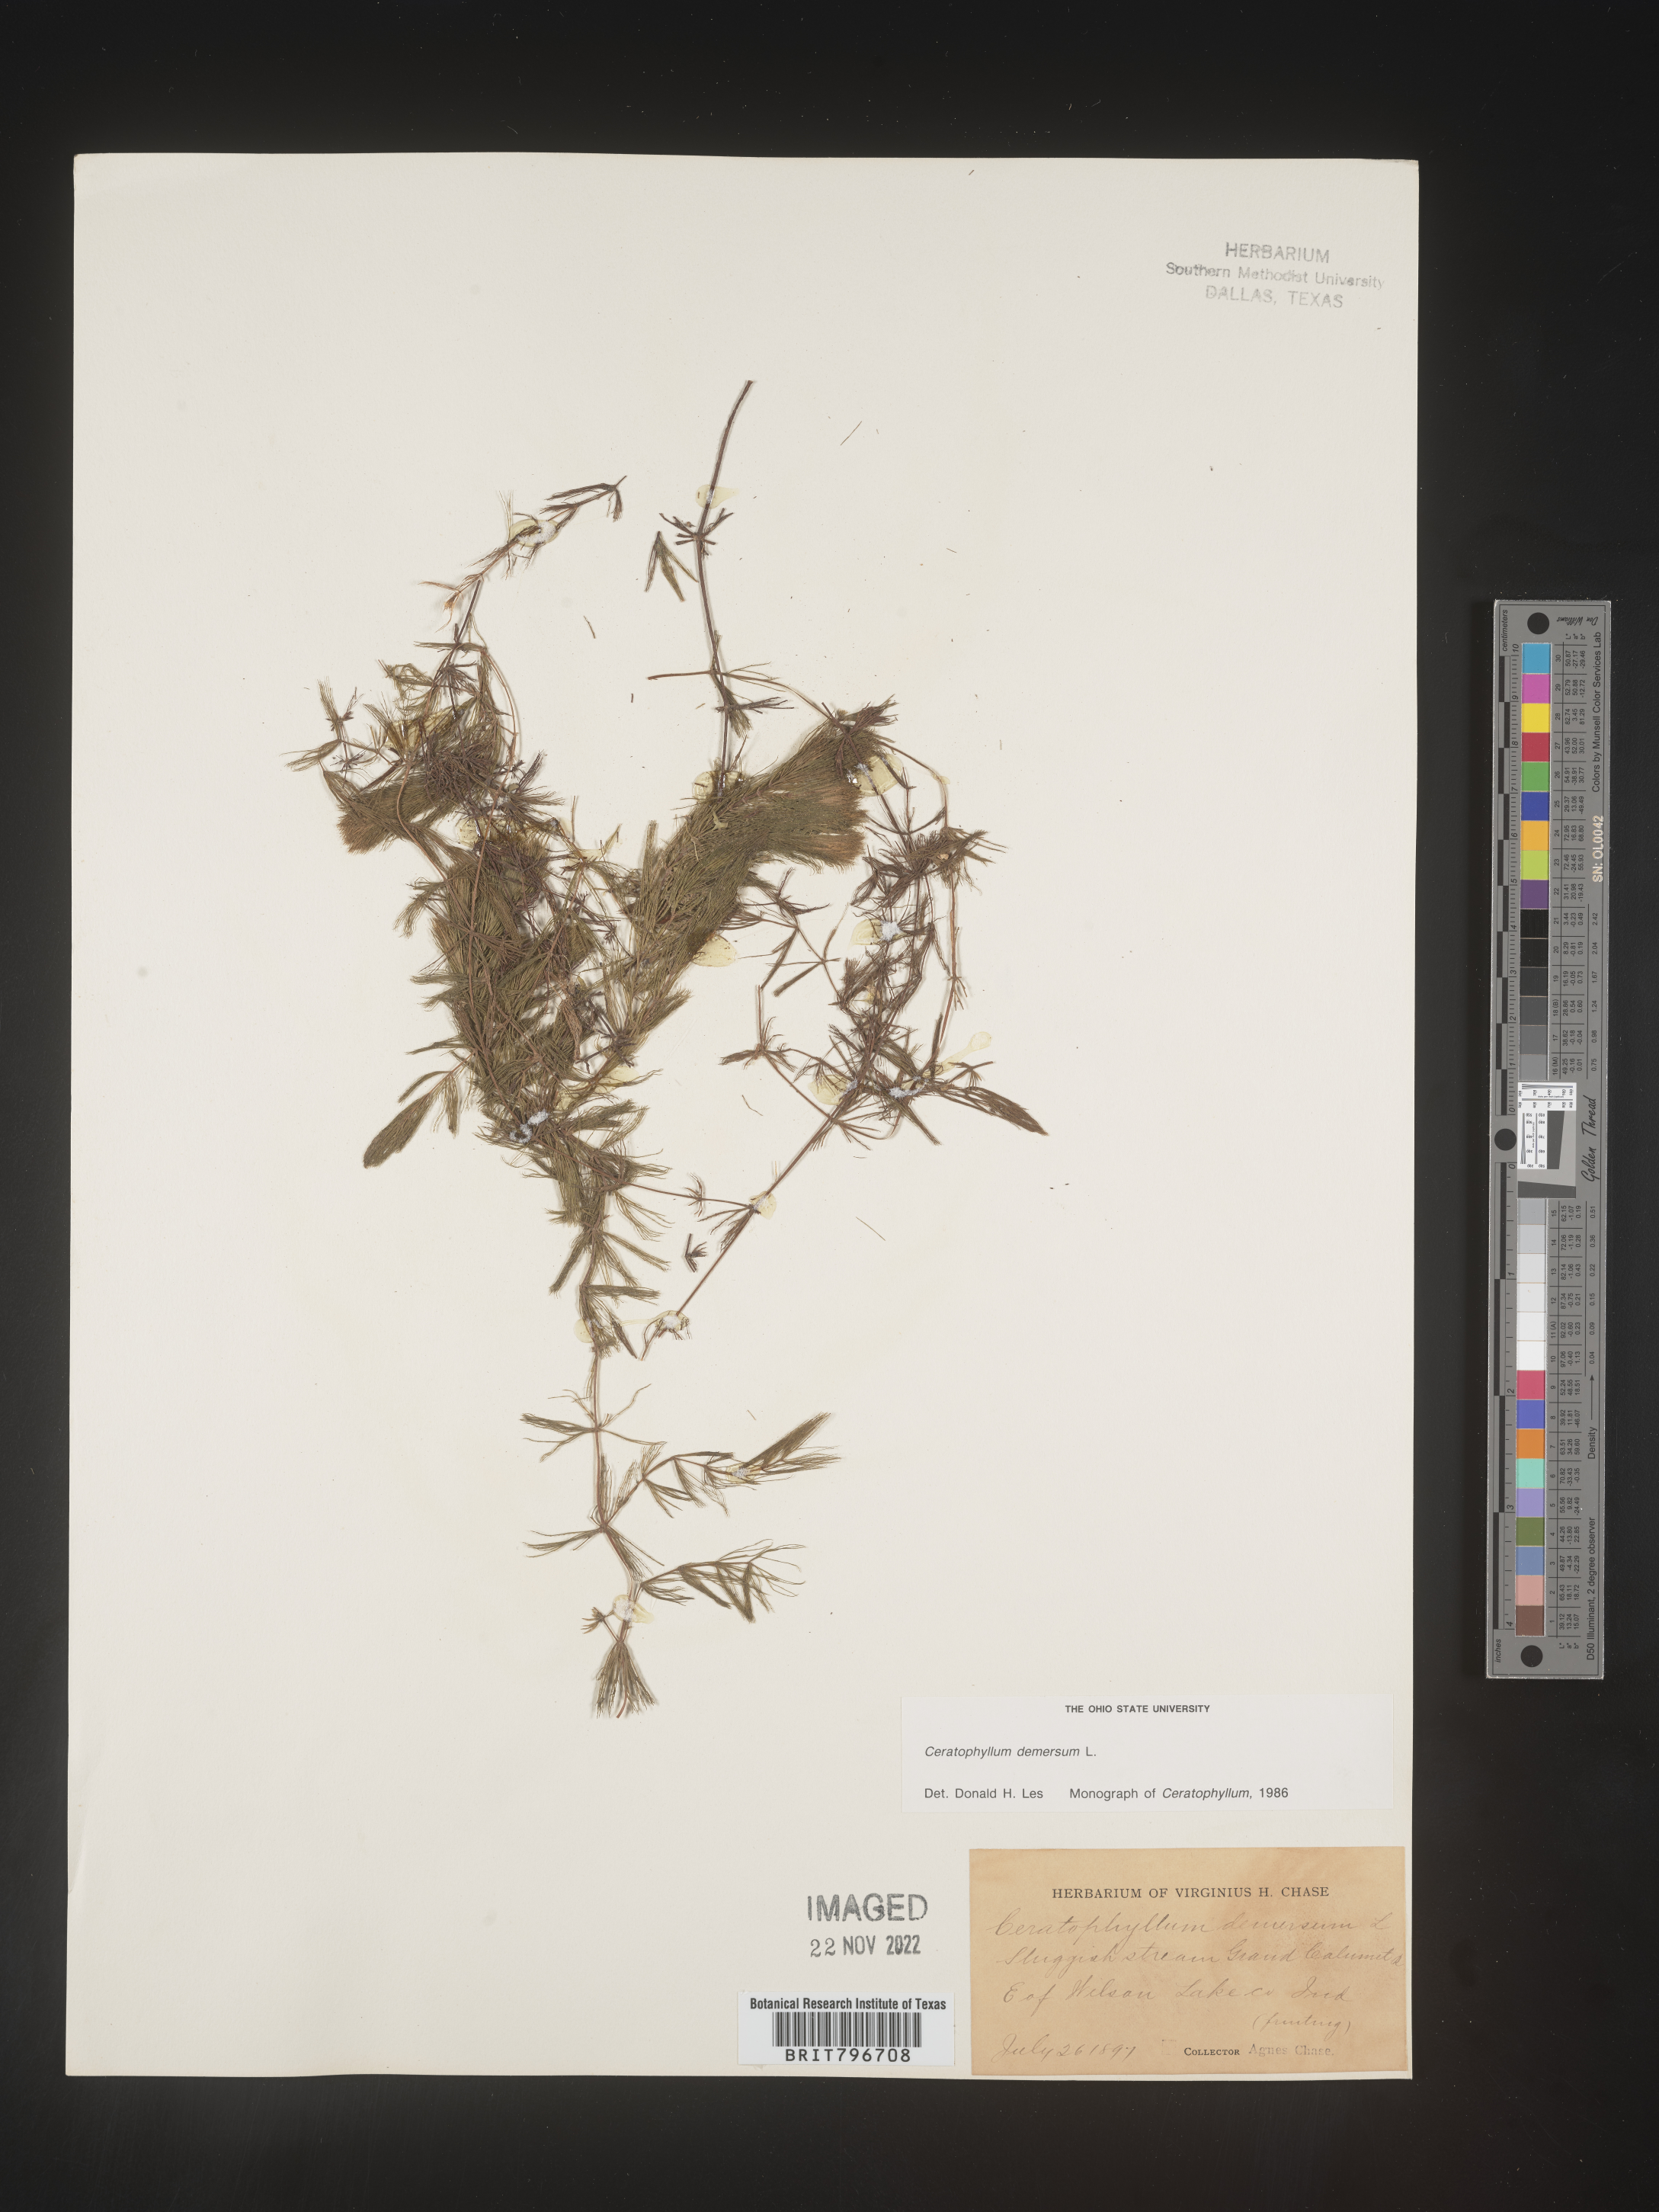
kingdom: Plantae
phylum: Tracheophyta
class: Magnoliopsida
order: Ceratophyllales
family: Ceratophyllaceae
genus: Ceratophyllum
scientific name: Ceratophyllum demersum
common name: Rigid hornwort
